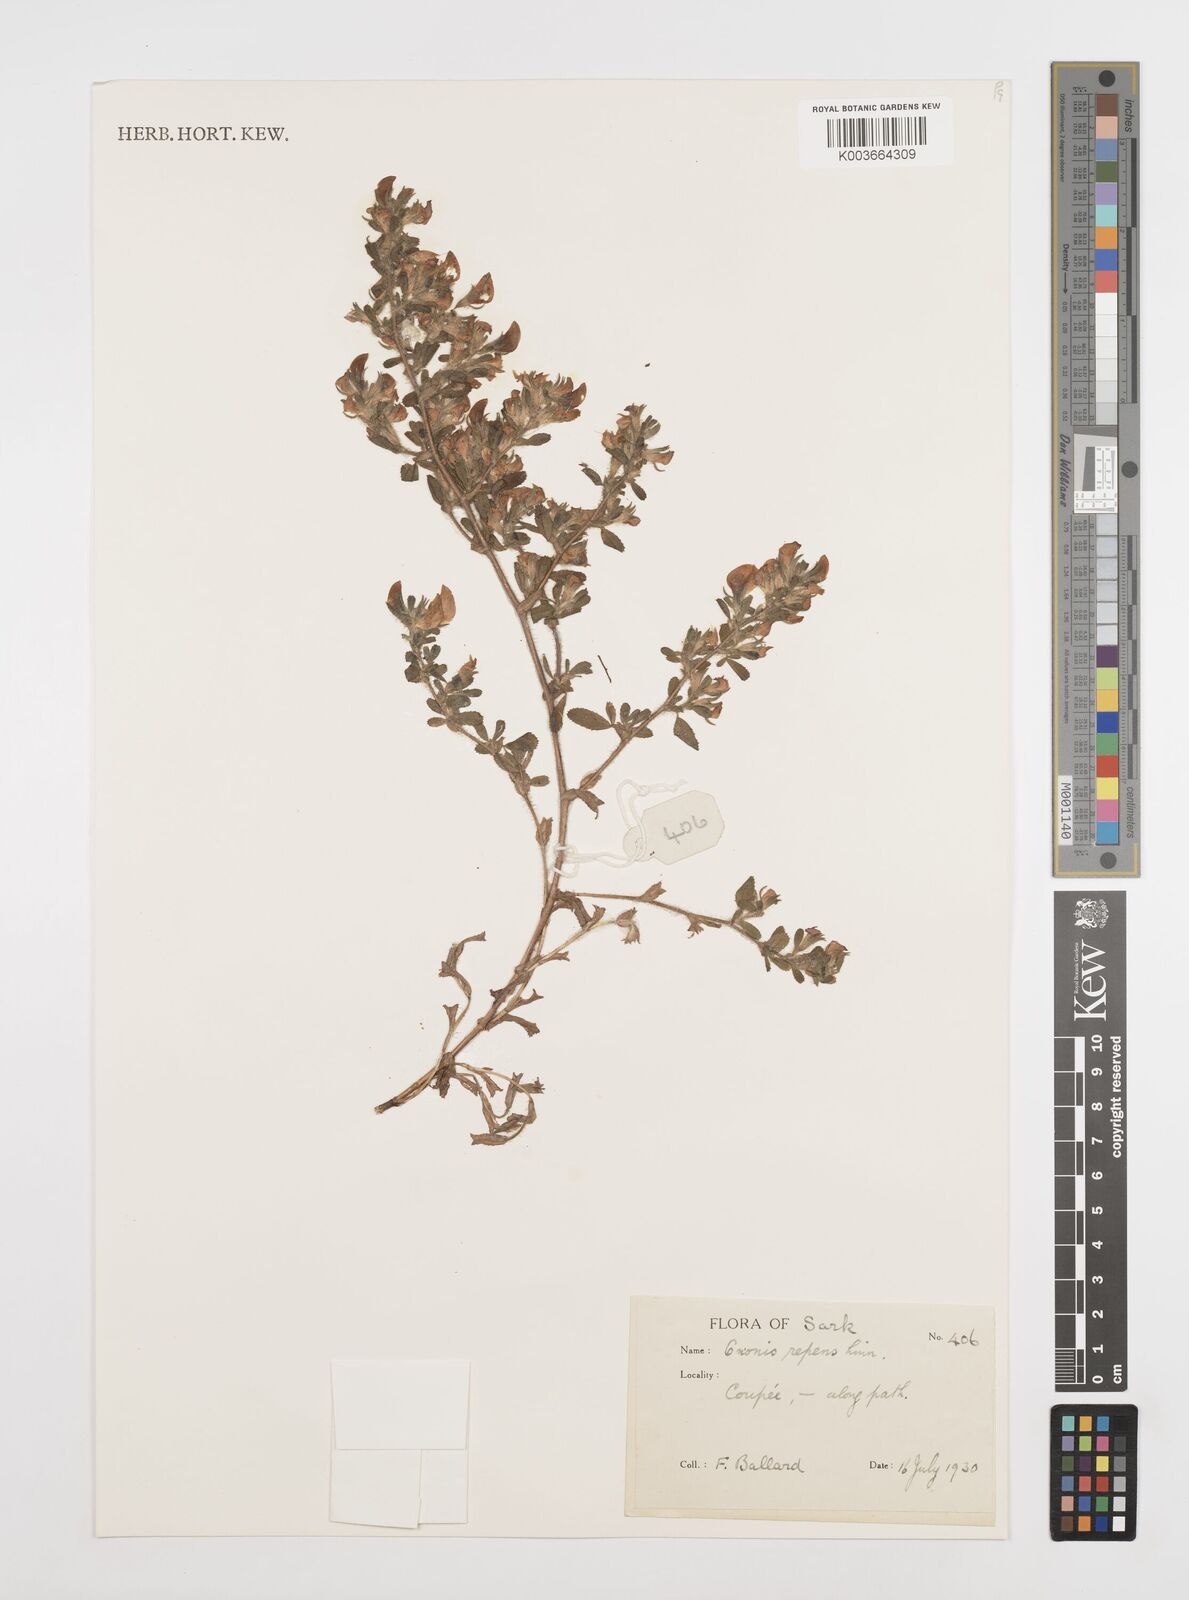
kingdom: Plantae
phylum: Tracheophyta
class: Magnoliopsida
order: Fabales
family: Fabaceae
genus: Ononis
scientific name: Ononis spinosa
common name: Spiny restharrow
